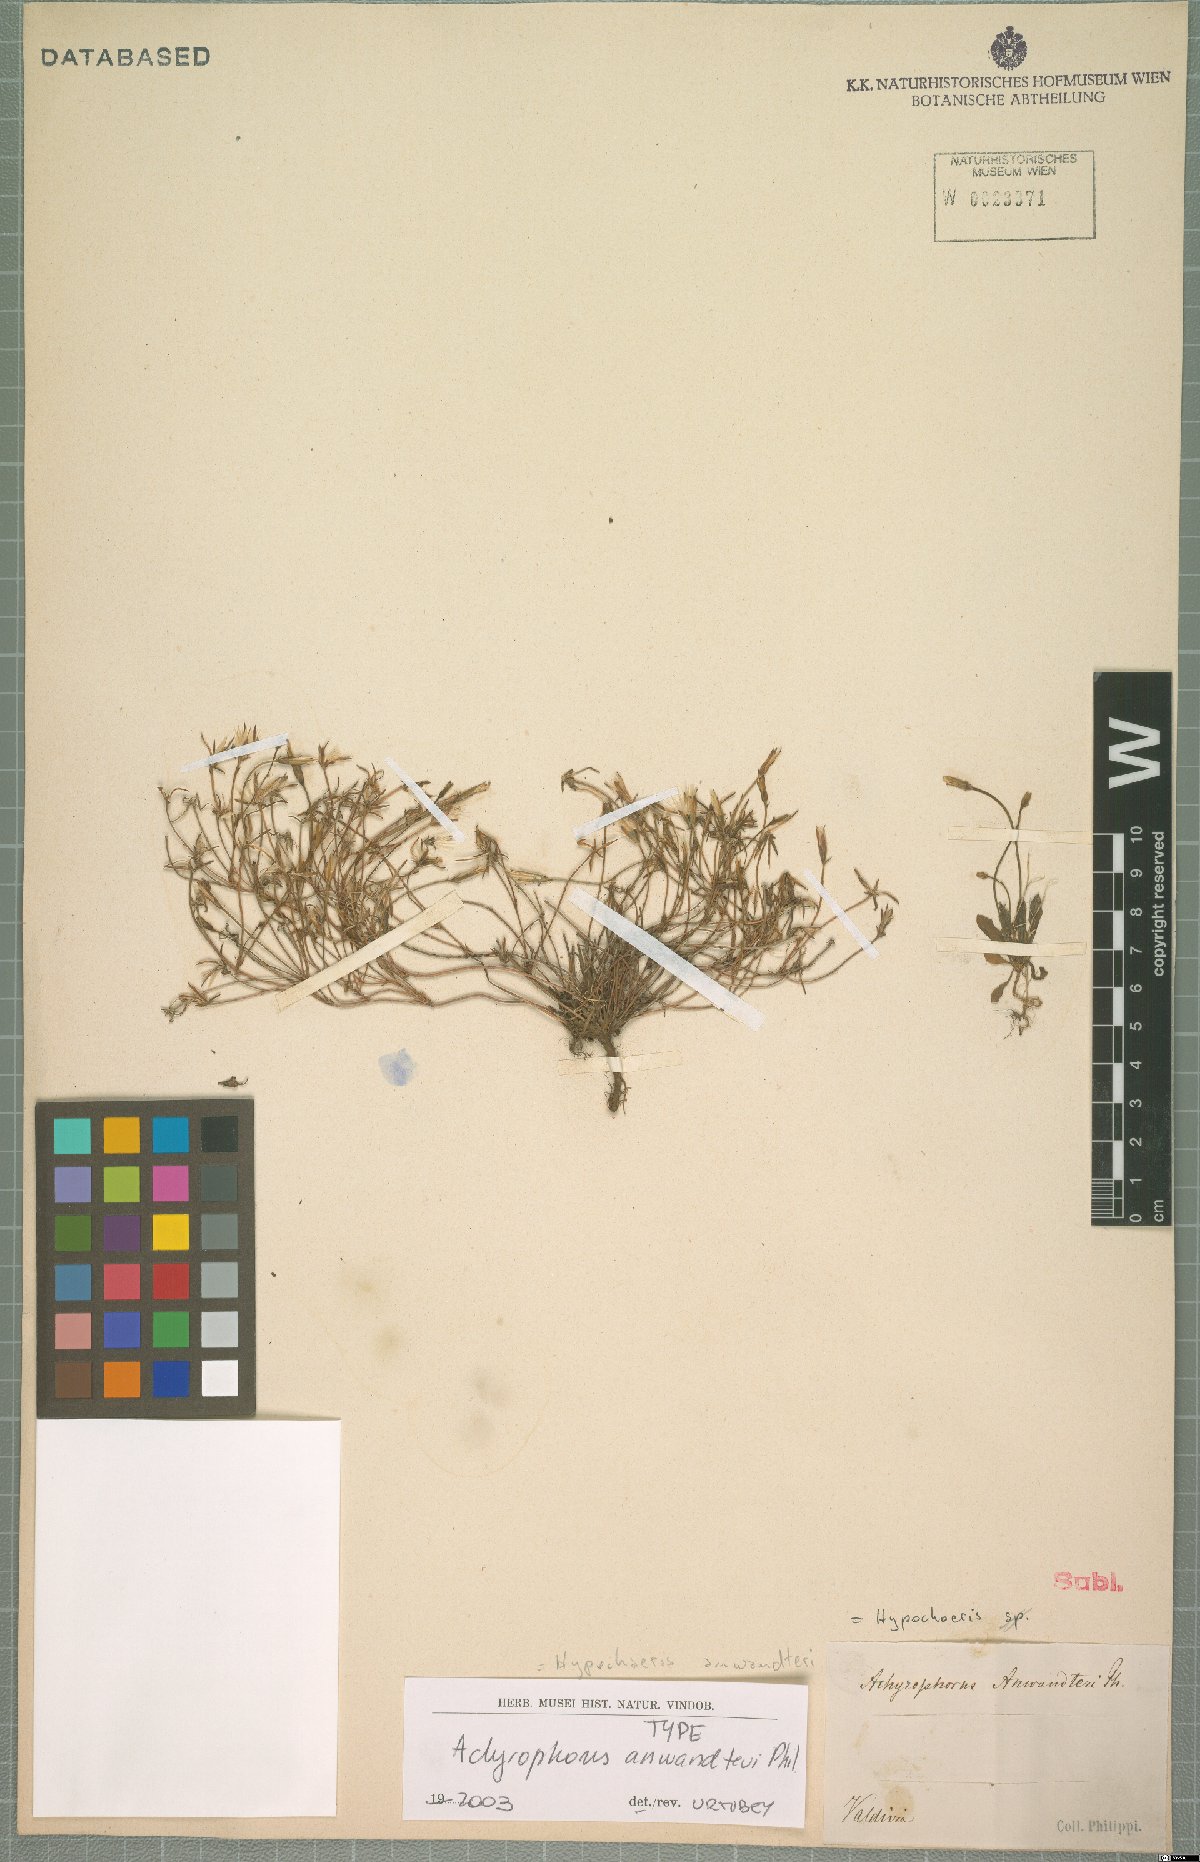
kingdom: Plantae
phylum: Tracheophyta
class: Magnoliopsida
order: Asterales
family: Asteraceae
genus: Hypochaeris
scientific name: Hypochaeris anwandteri
